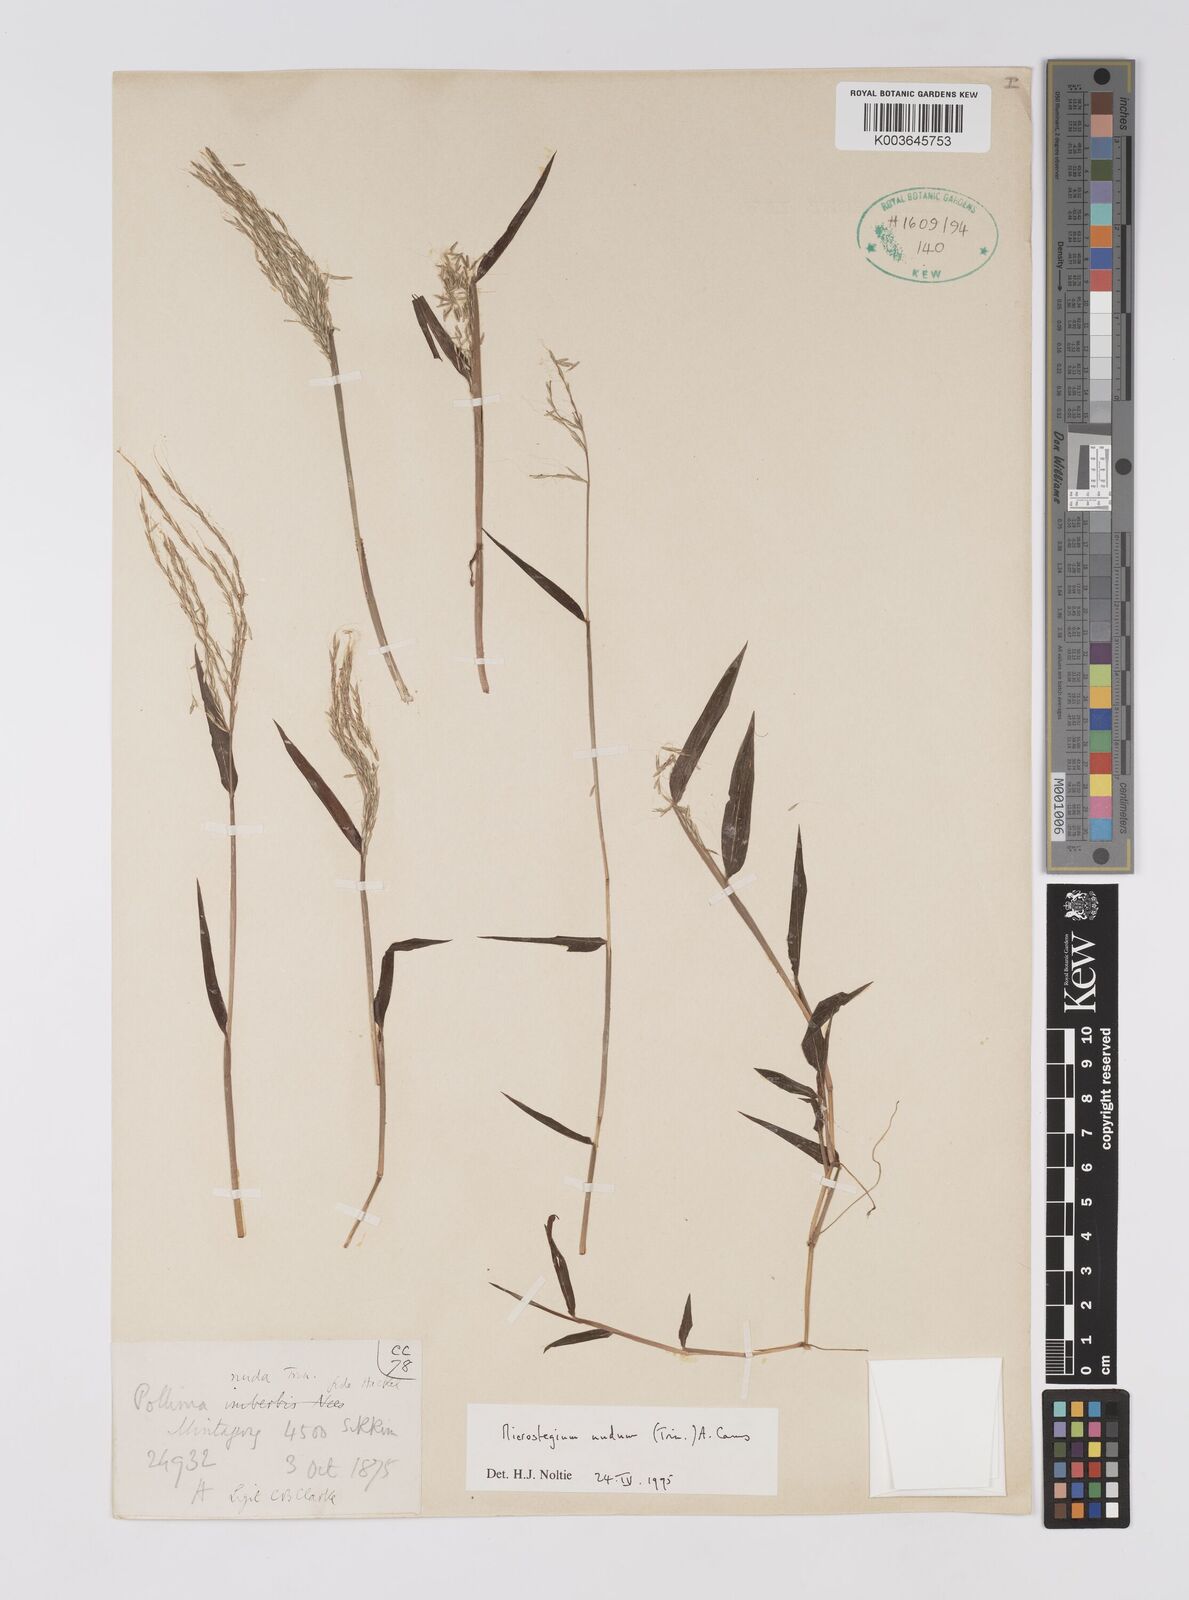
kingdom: Plantae
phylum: Tracheophyta
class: Liliopsida
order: Poales
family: Poaceae
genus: Microstegium
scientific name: Microstegium nudum
